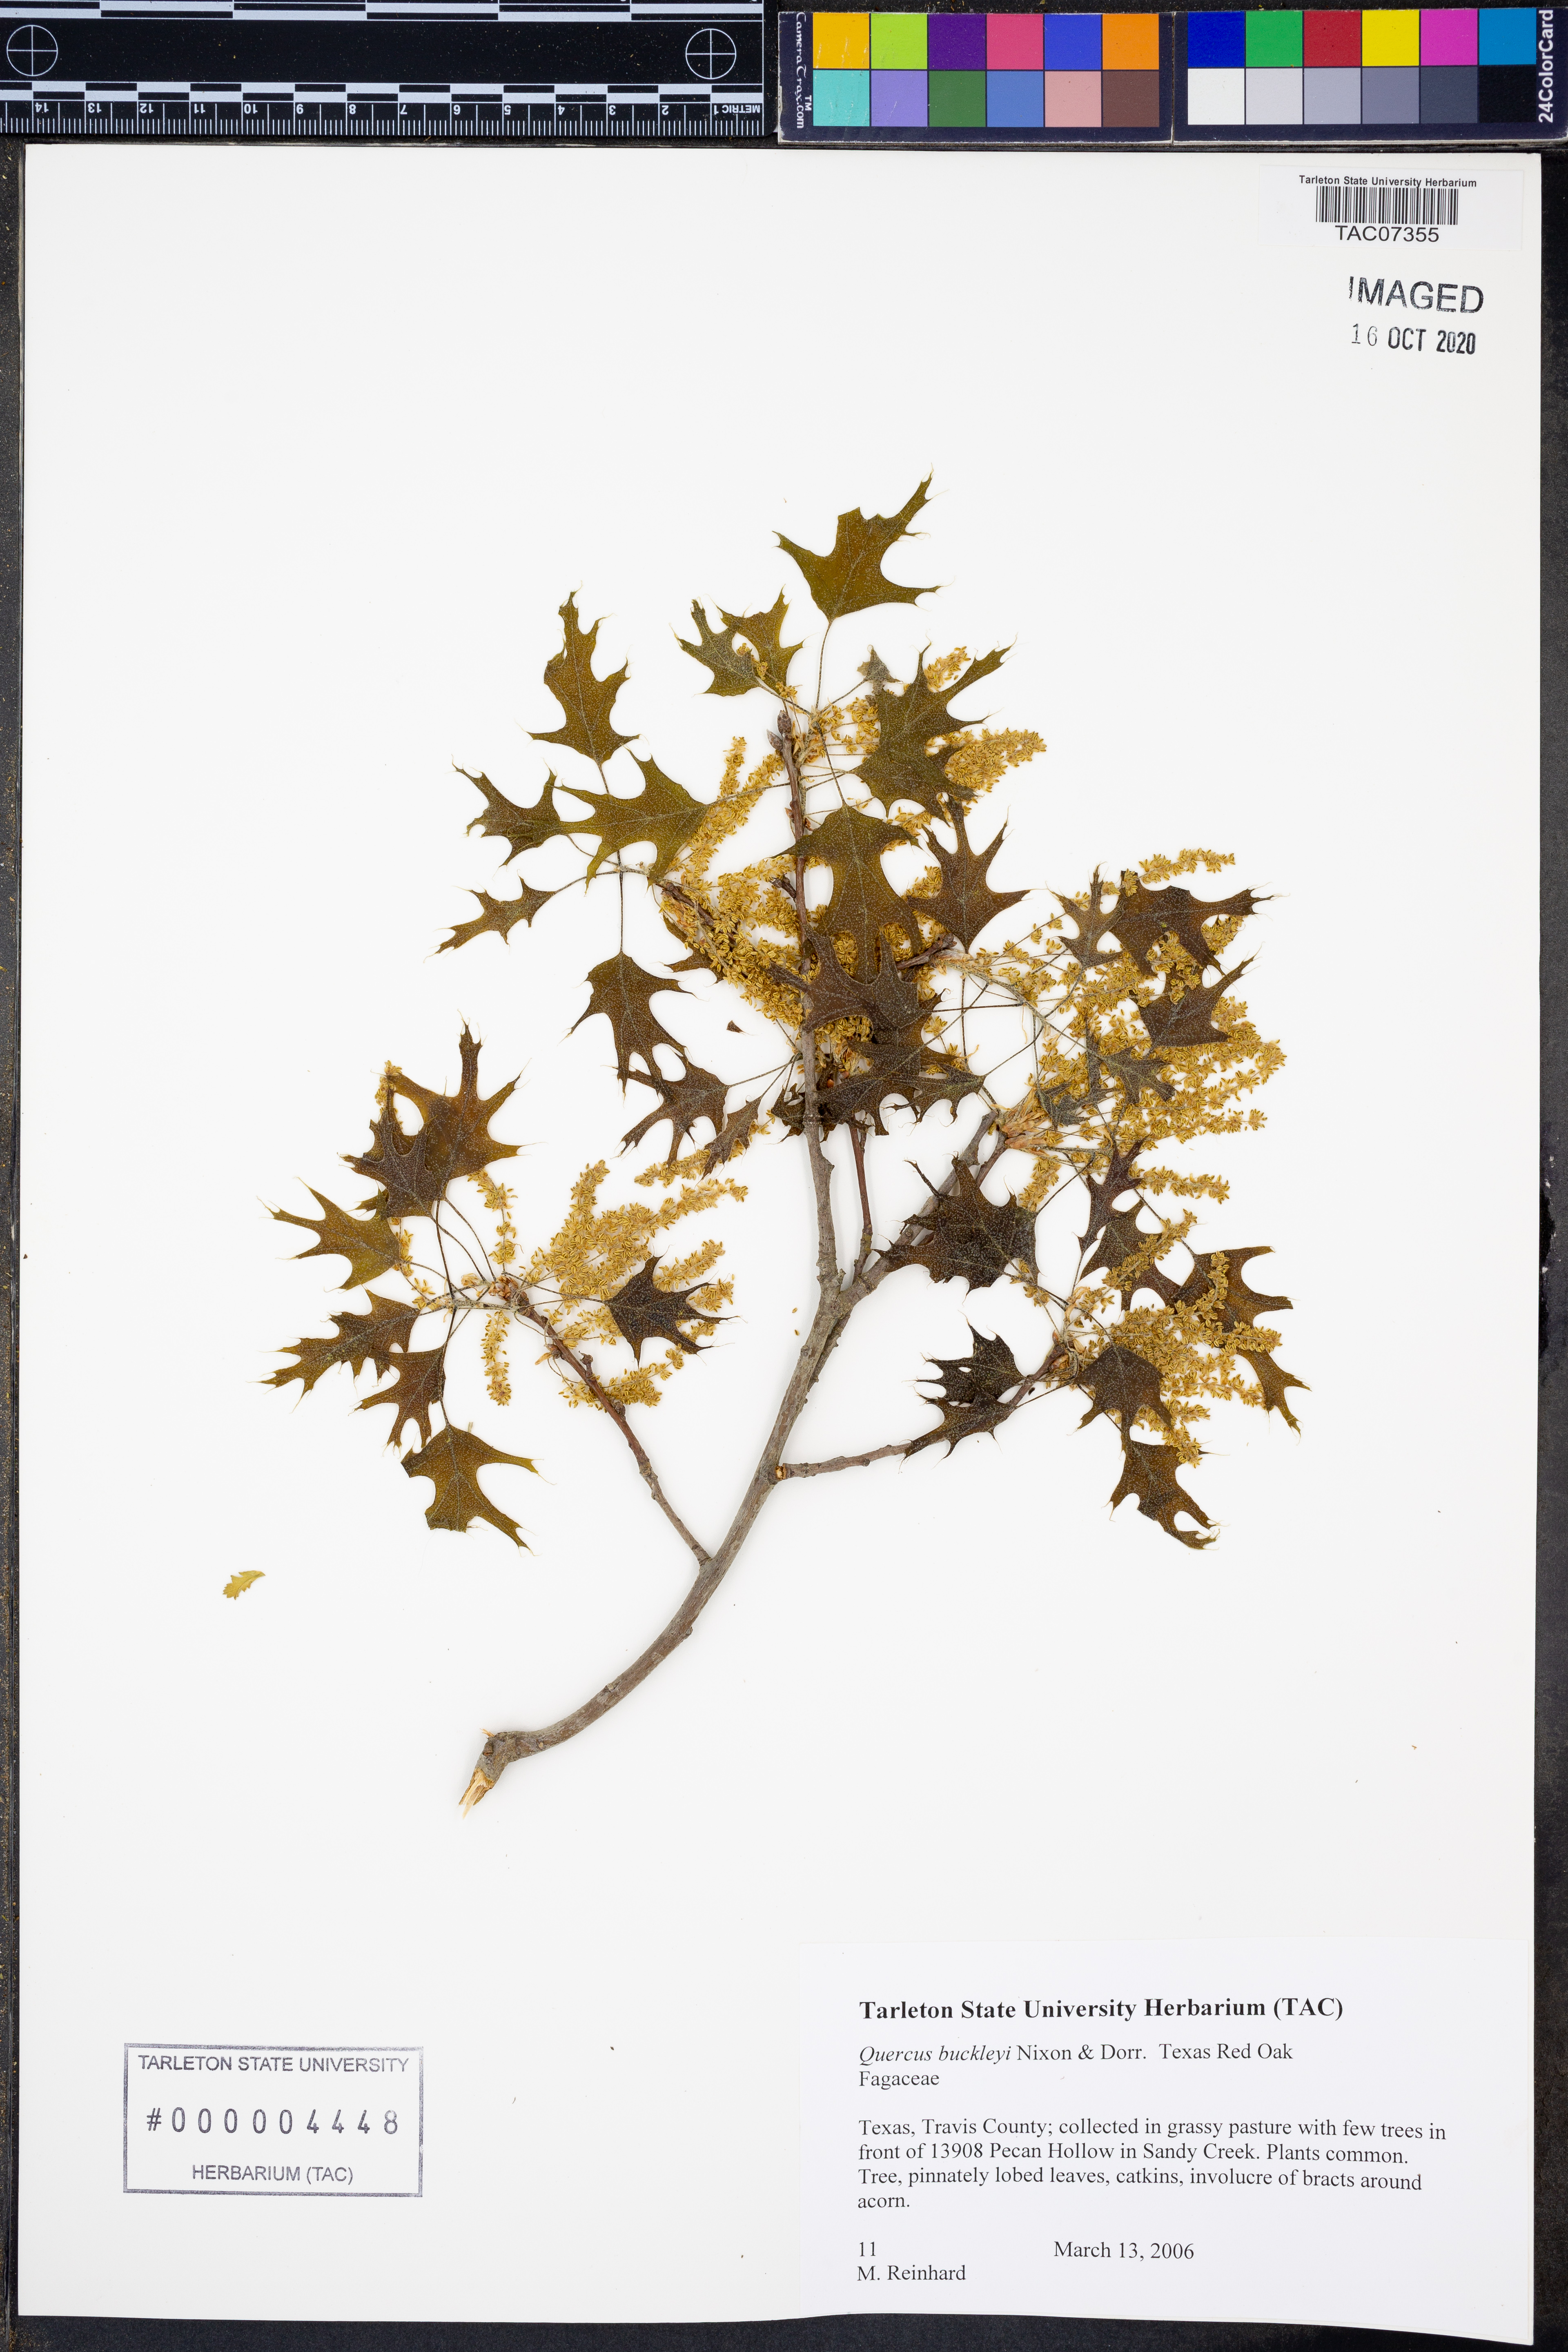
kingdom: Plantae
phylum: Tracheophyta
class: Magnoliopsida
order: Fagales
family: Fagaceae
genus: Quercus
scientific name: Quercus buckleyi
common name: Buckley oak
